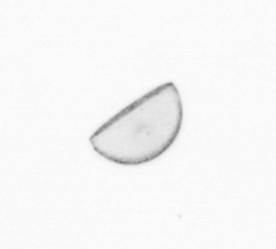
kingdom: Chromista
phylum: Ochrophyta
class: Bacillariophyceae
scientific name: Bacillariophyceae
